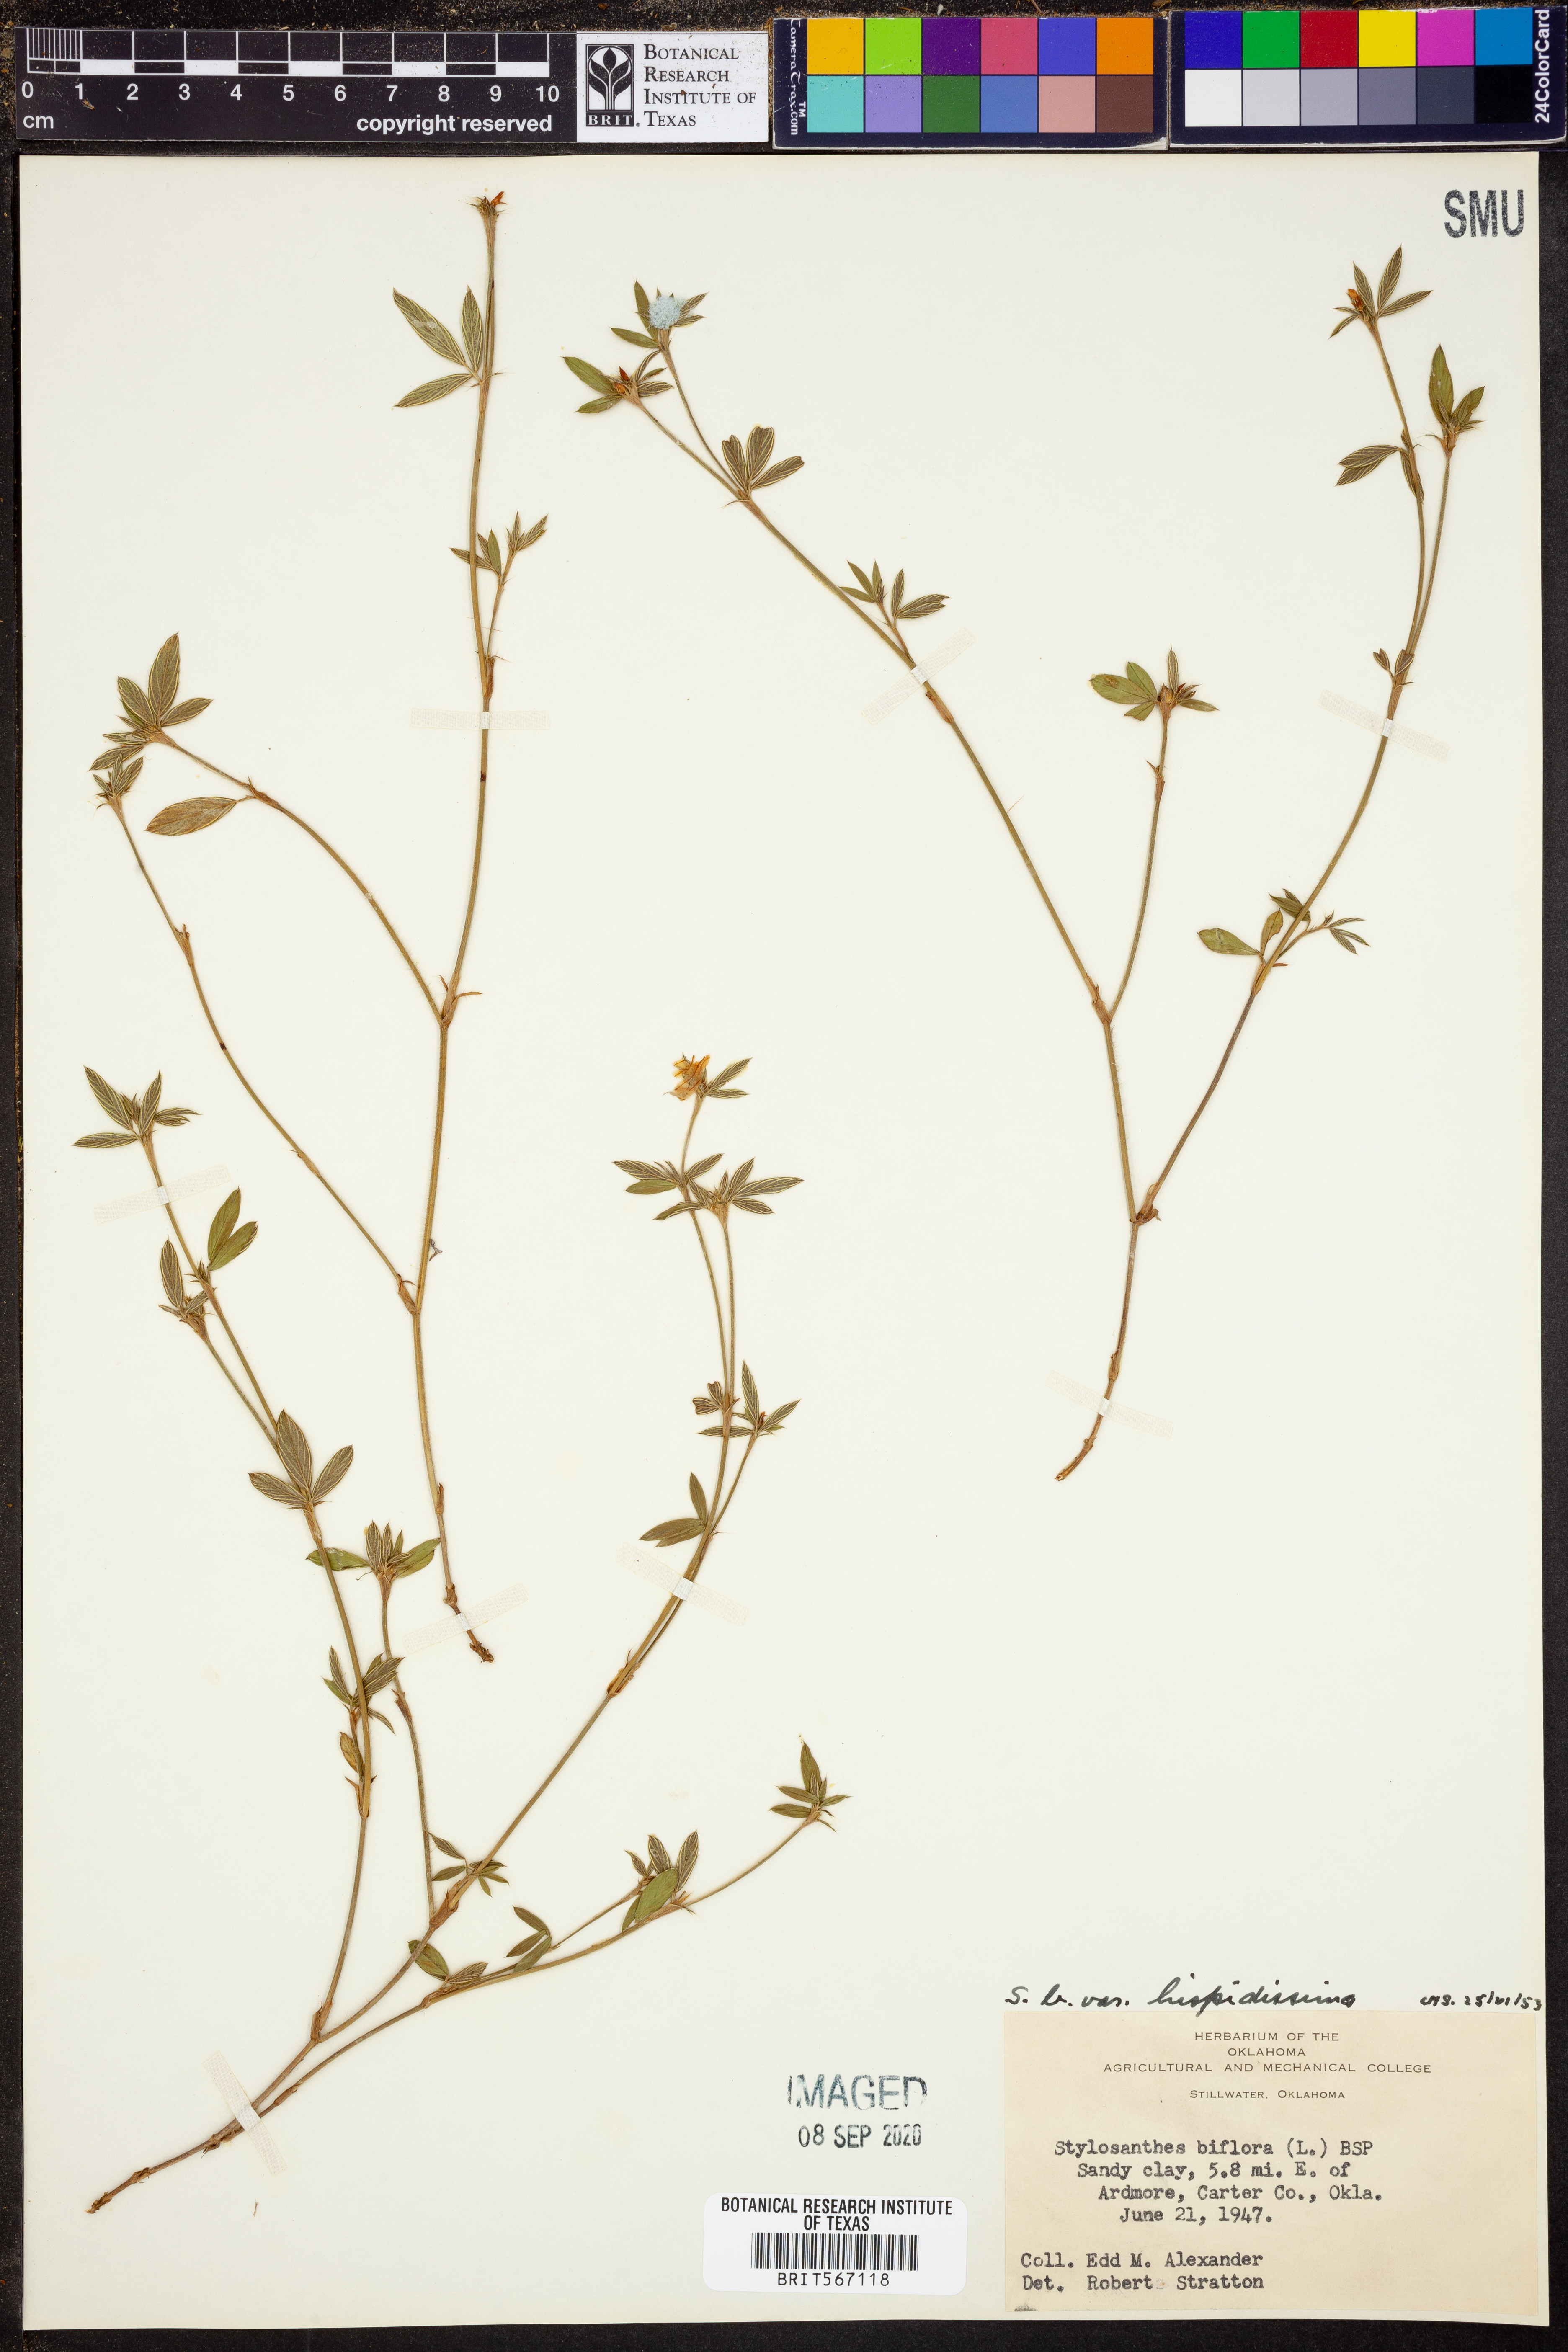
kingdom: Plantae
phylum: Tracheophyta
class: Magnoliopsida
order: Fabales
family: Fabaceae
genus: Stylosanthes
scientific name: Stylosanthes biflora
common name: Two-flower pencil-flower
